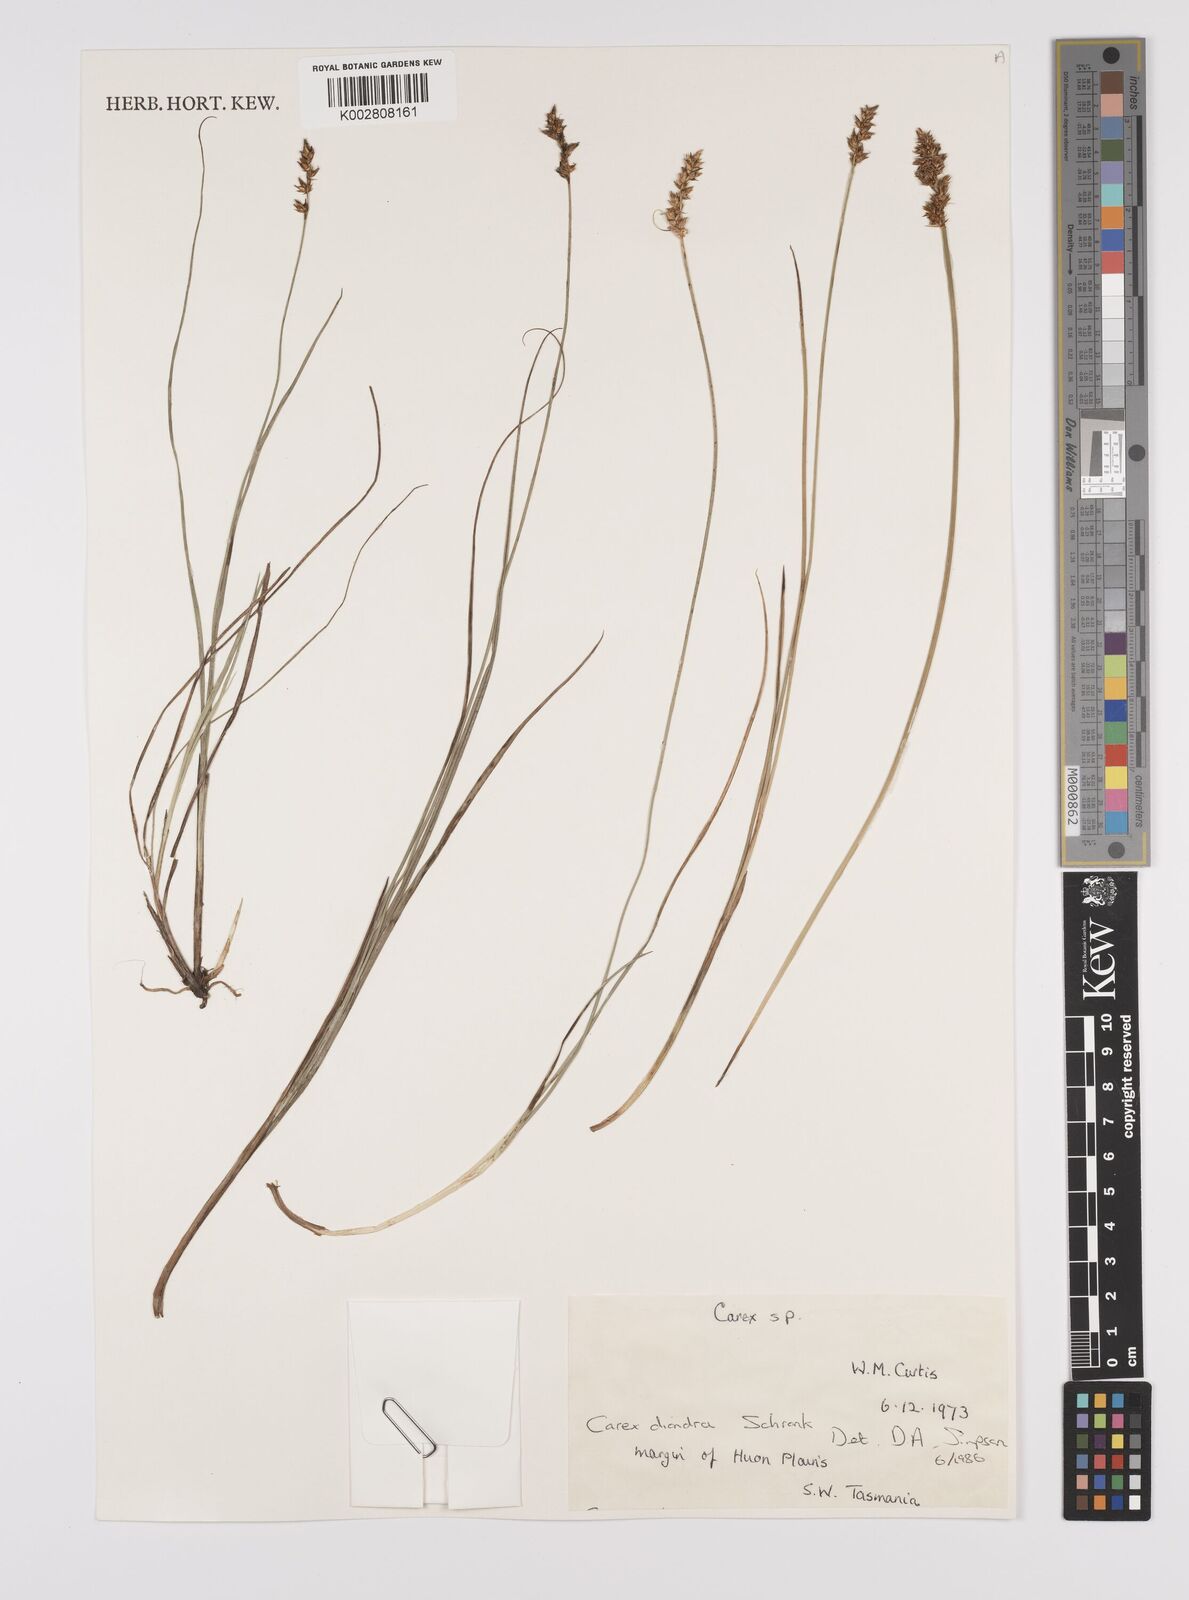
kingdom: Plantae
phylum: Tracheophyta
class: Liliopsida
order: Poales
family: Cyperaceae
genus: Carex
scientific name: Carex diandra
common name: Lesser tussock-sedge
